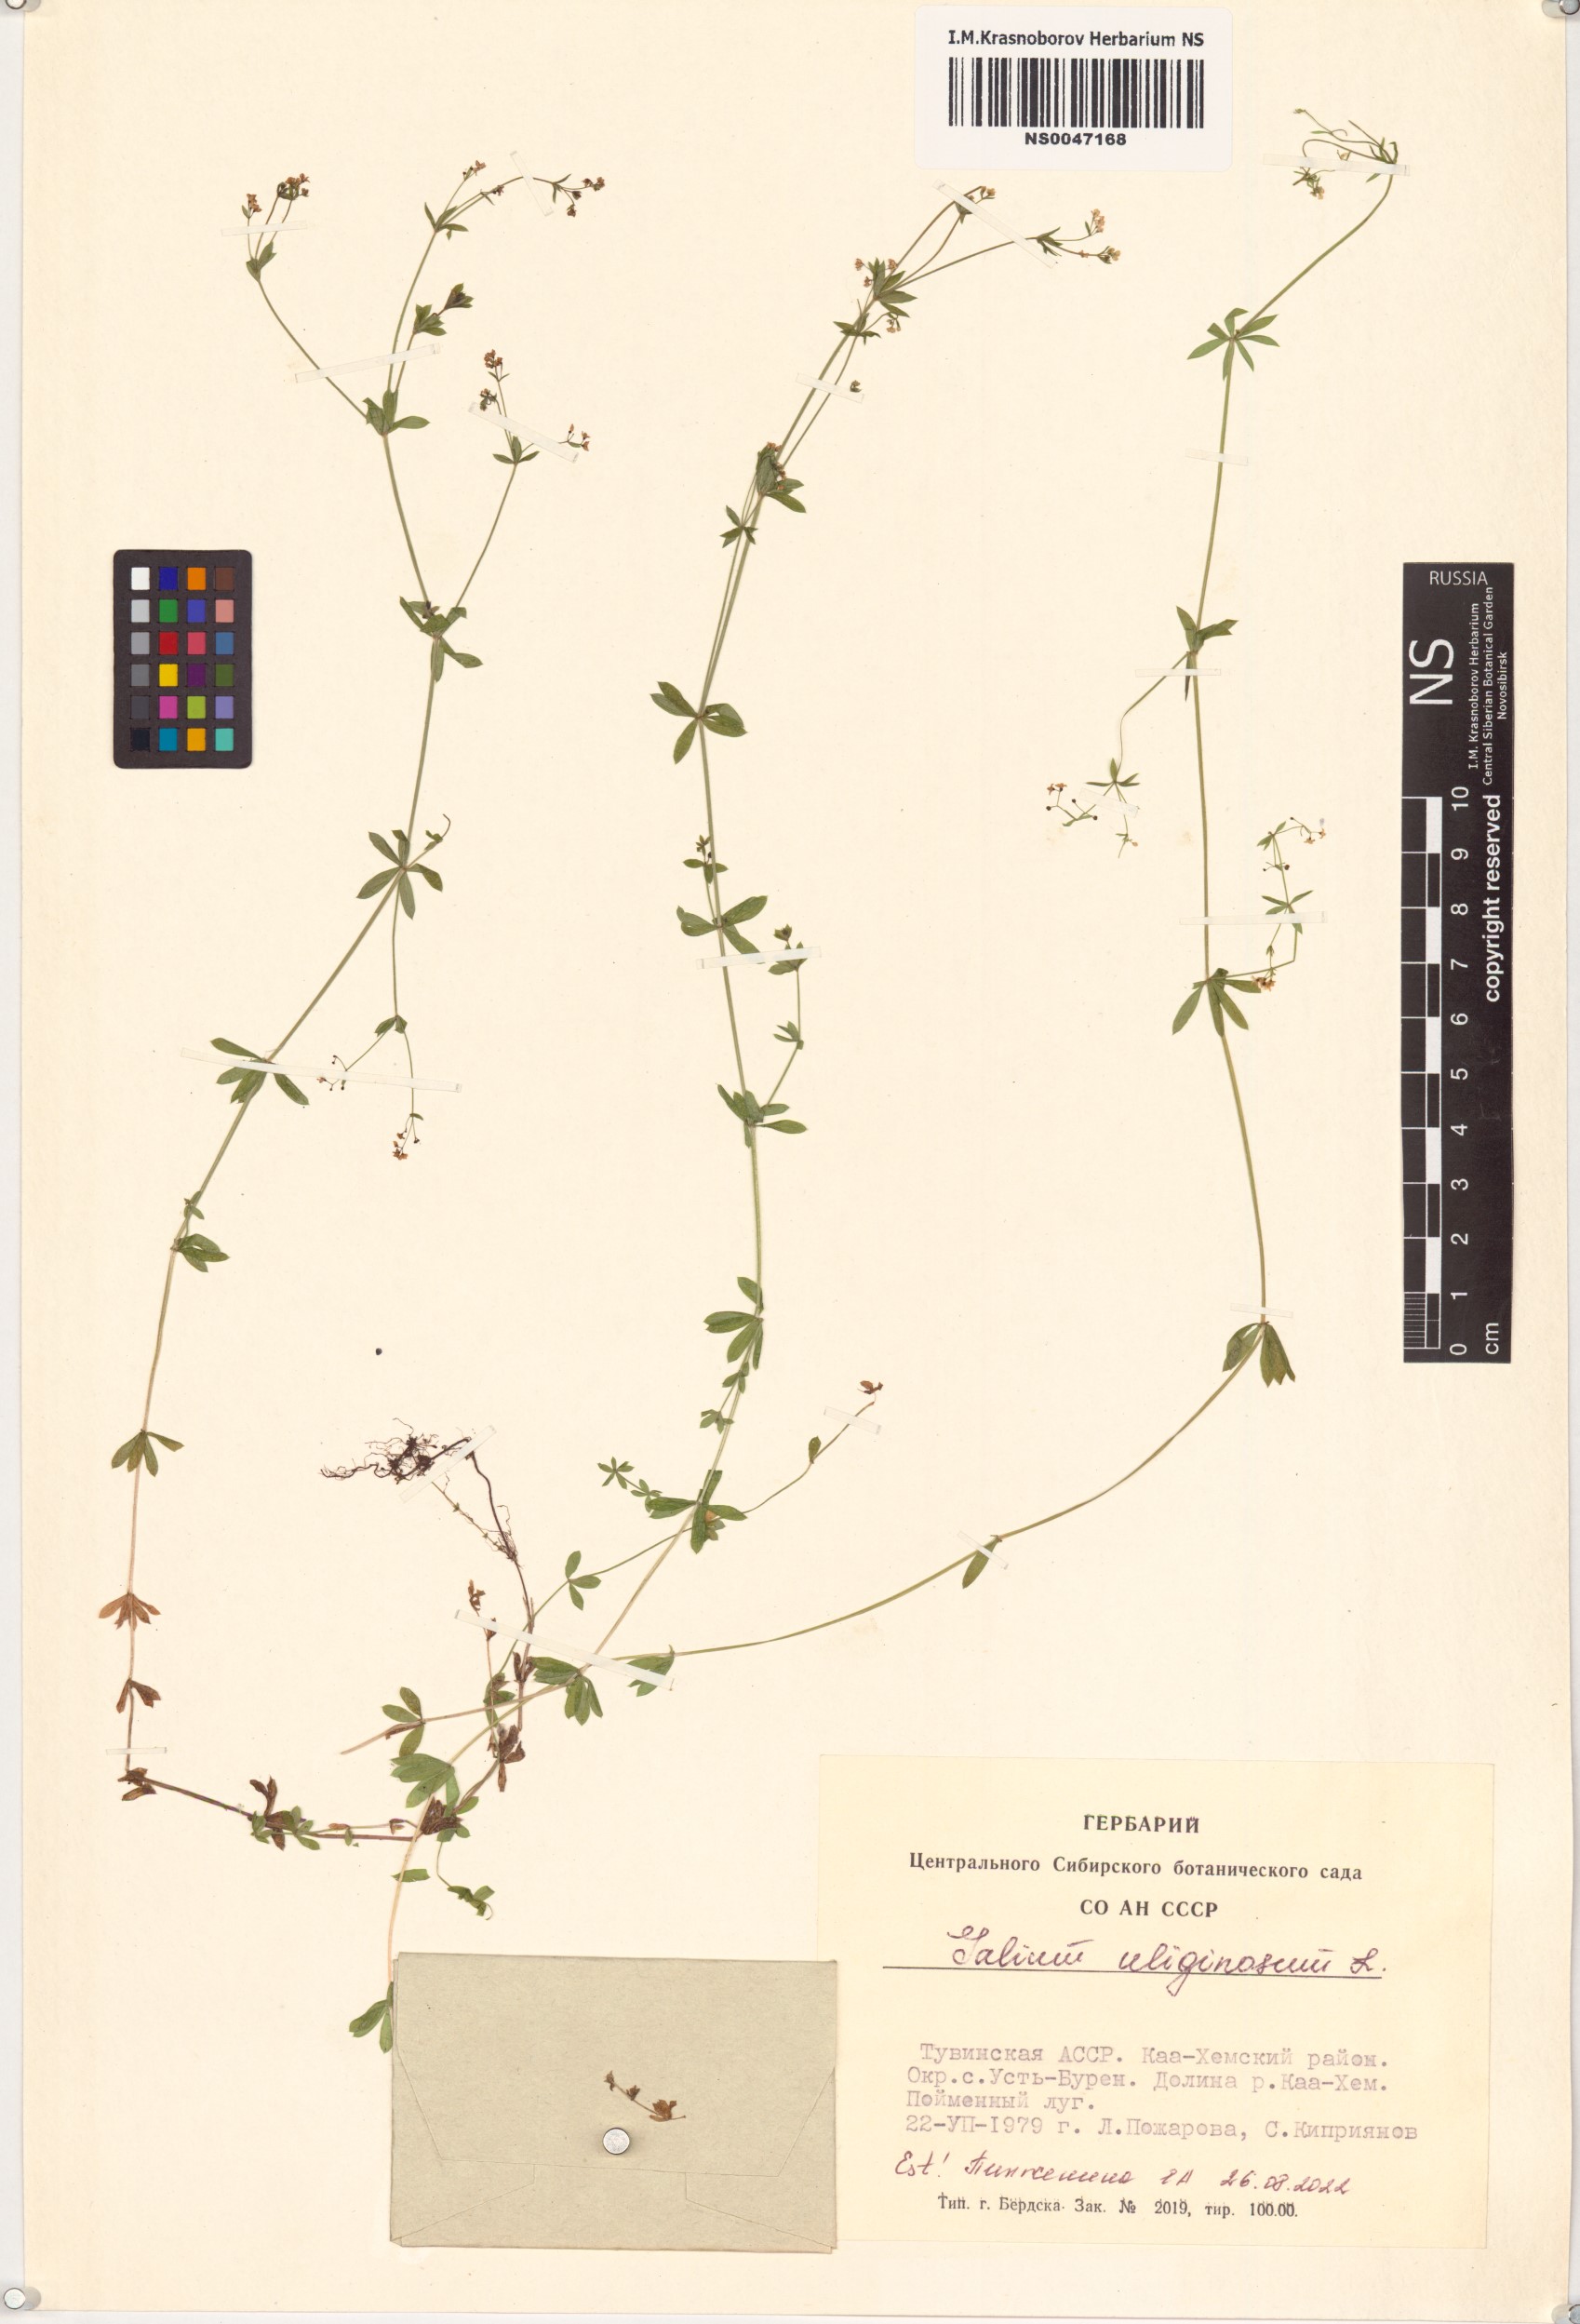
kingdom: Plantae
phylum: Tracheophyta
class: Magnoliopsida
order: Gentianales
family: Rubiaceae
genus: Galium
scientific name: Galium uliginosum
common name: Fen bedstraw
